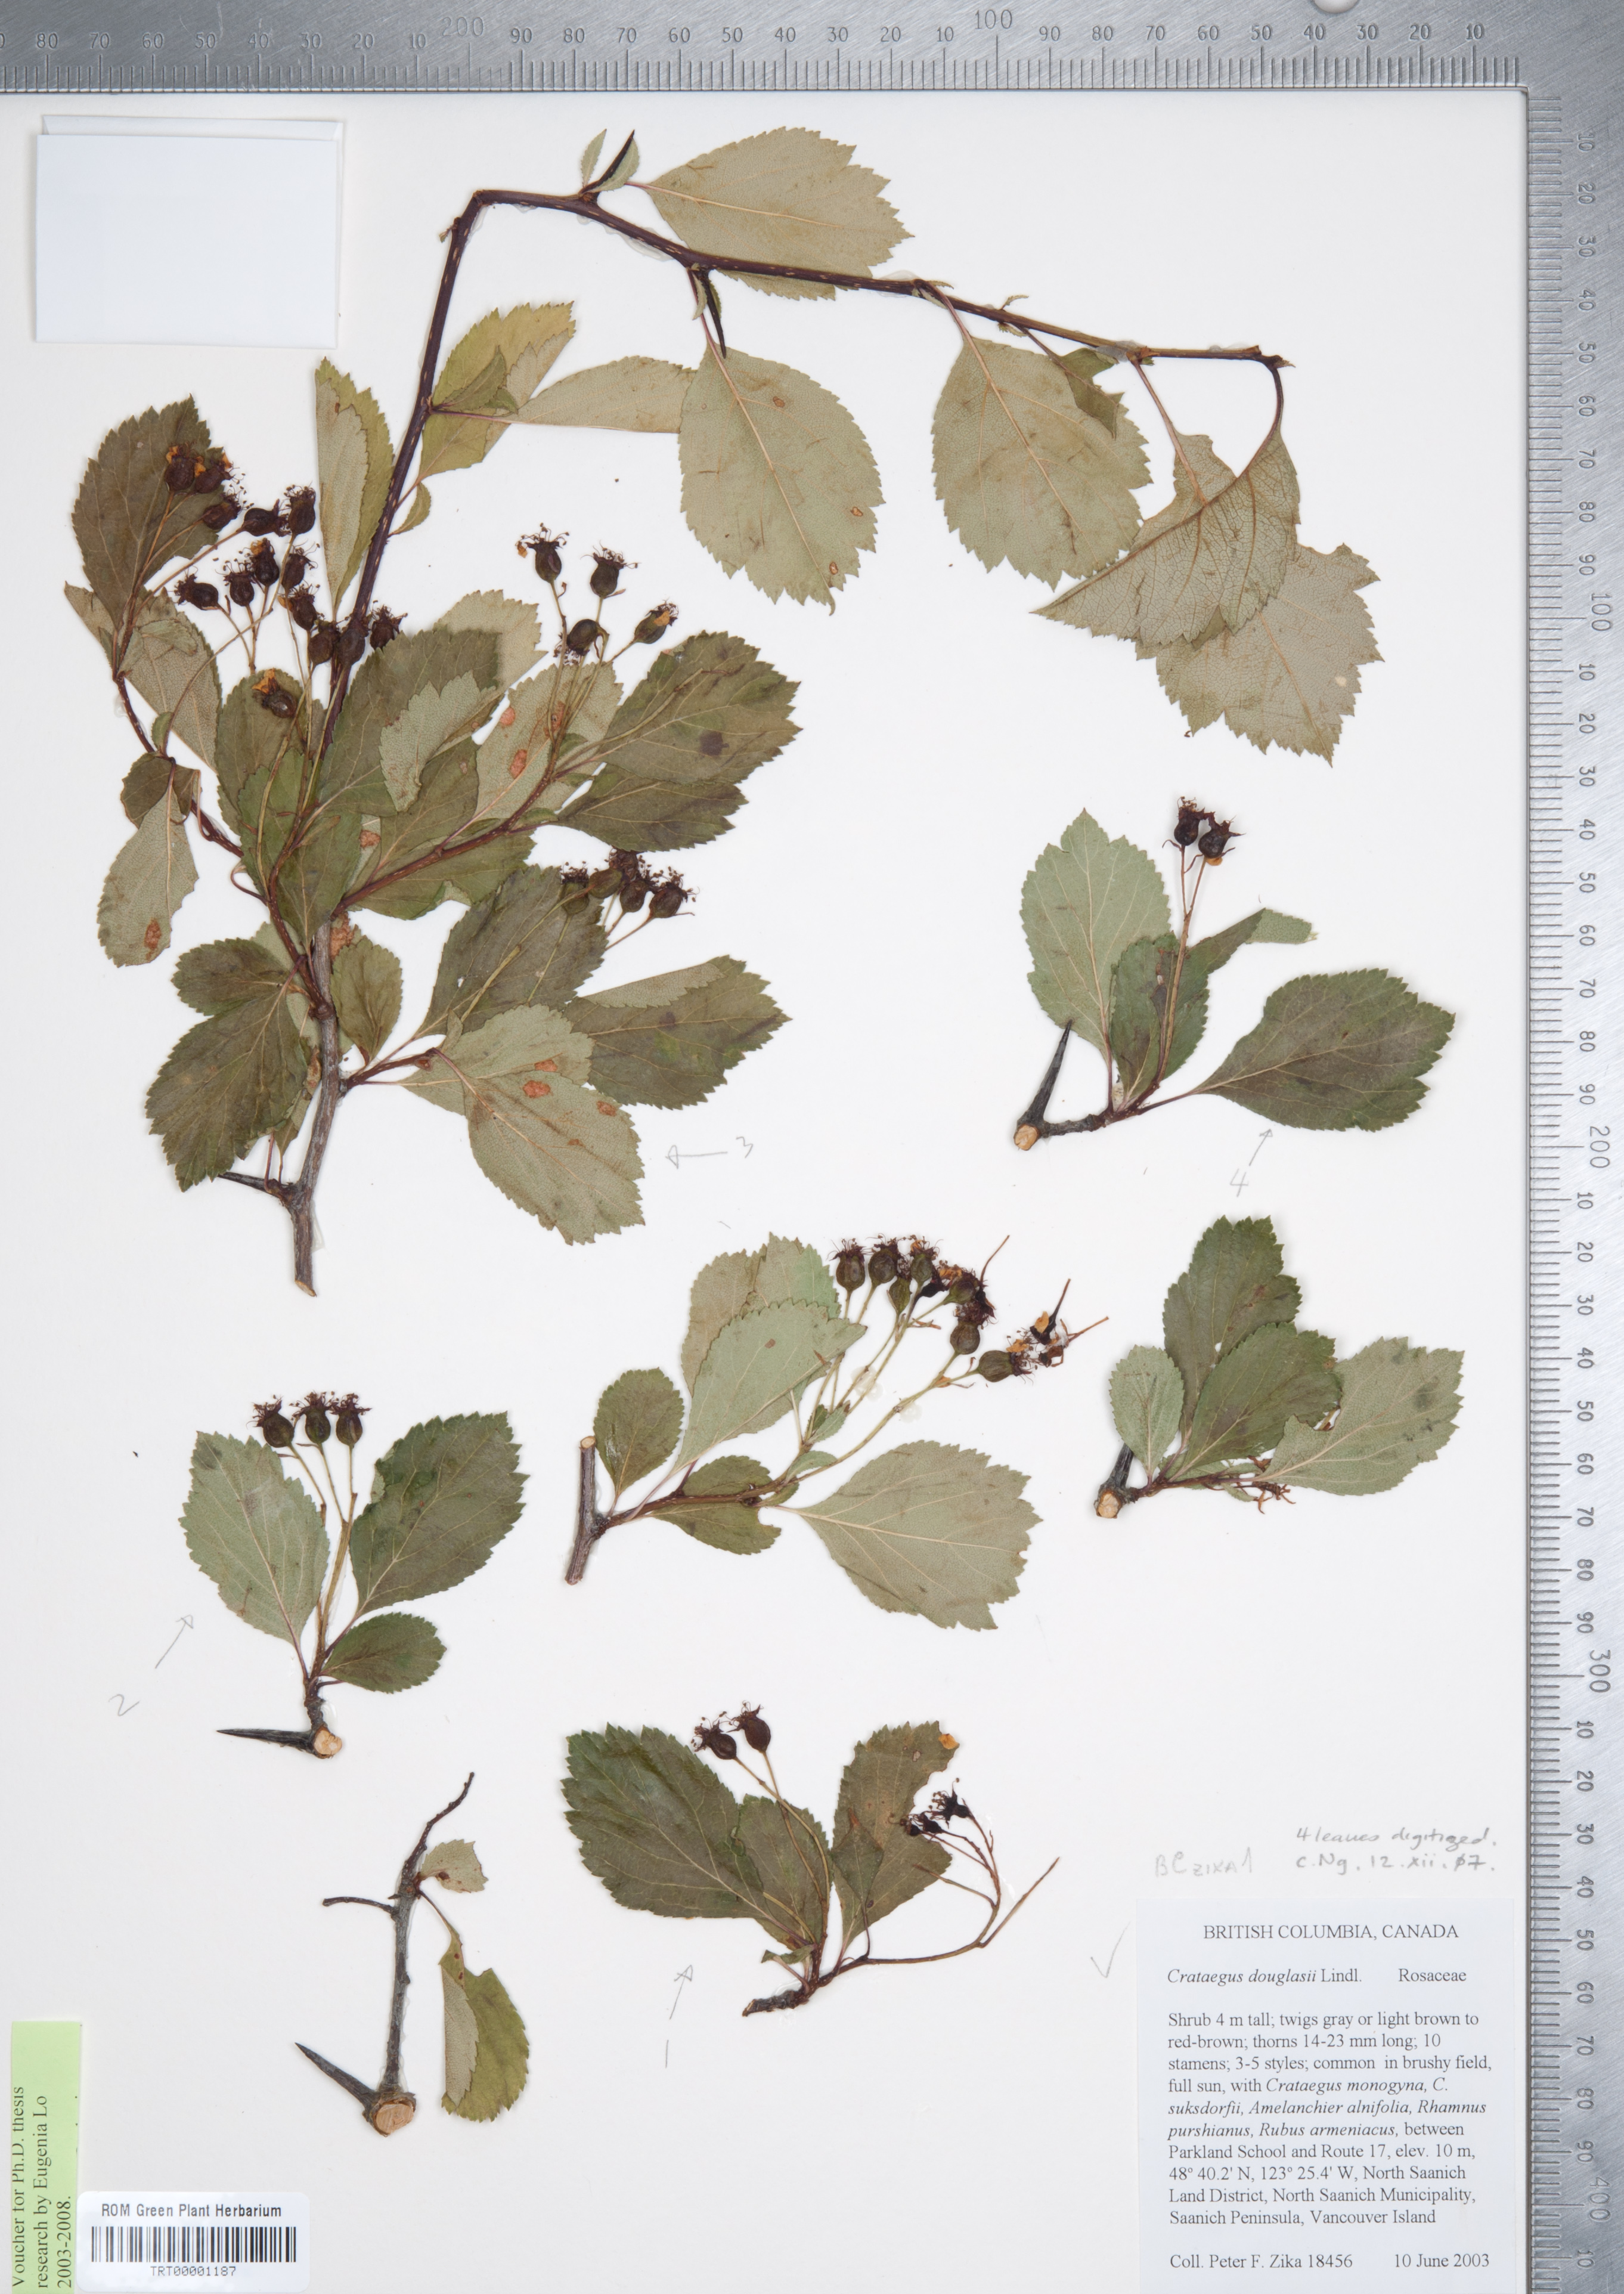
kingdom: Plantae
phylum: Tracheophyta
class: Magnoliopsida
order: Rosales
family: Rosaceae
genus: Crataegus
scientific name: Crataegus douglasii
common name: Black hawthorn
